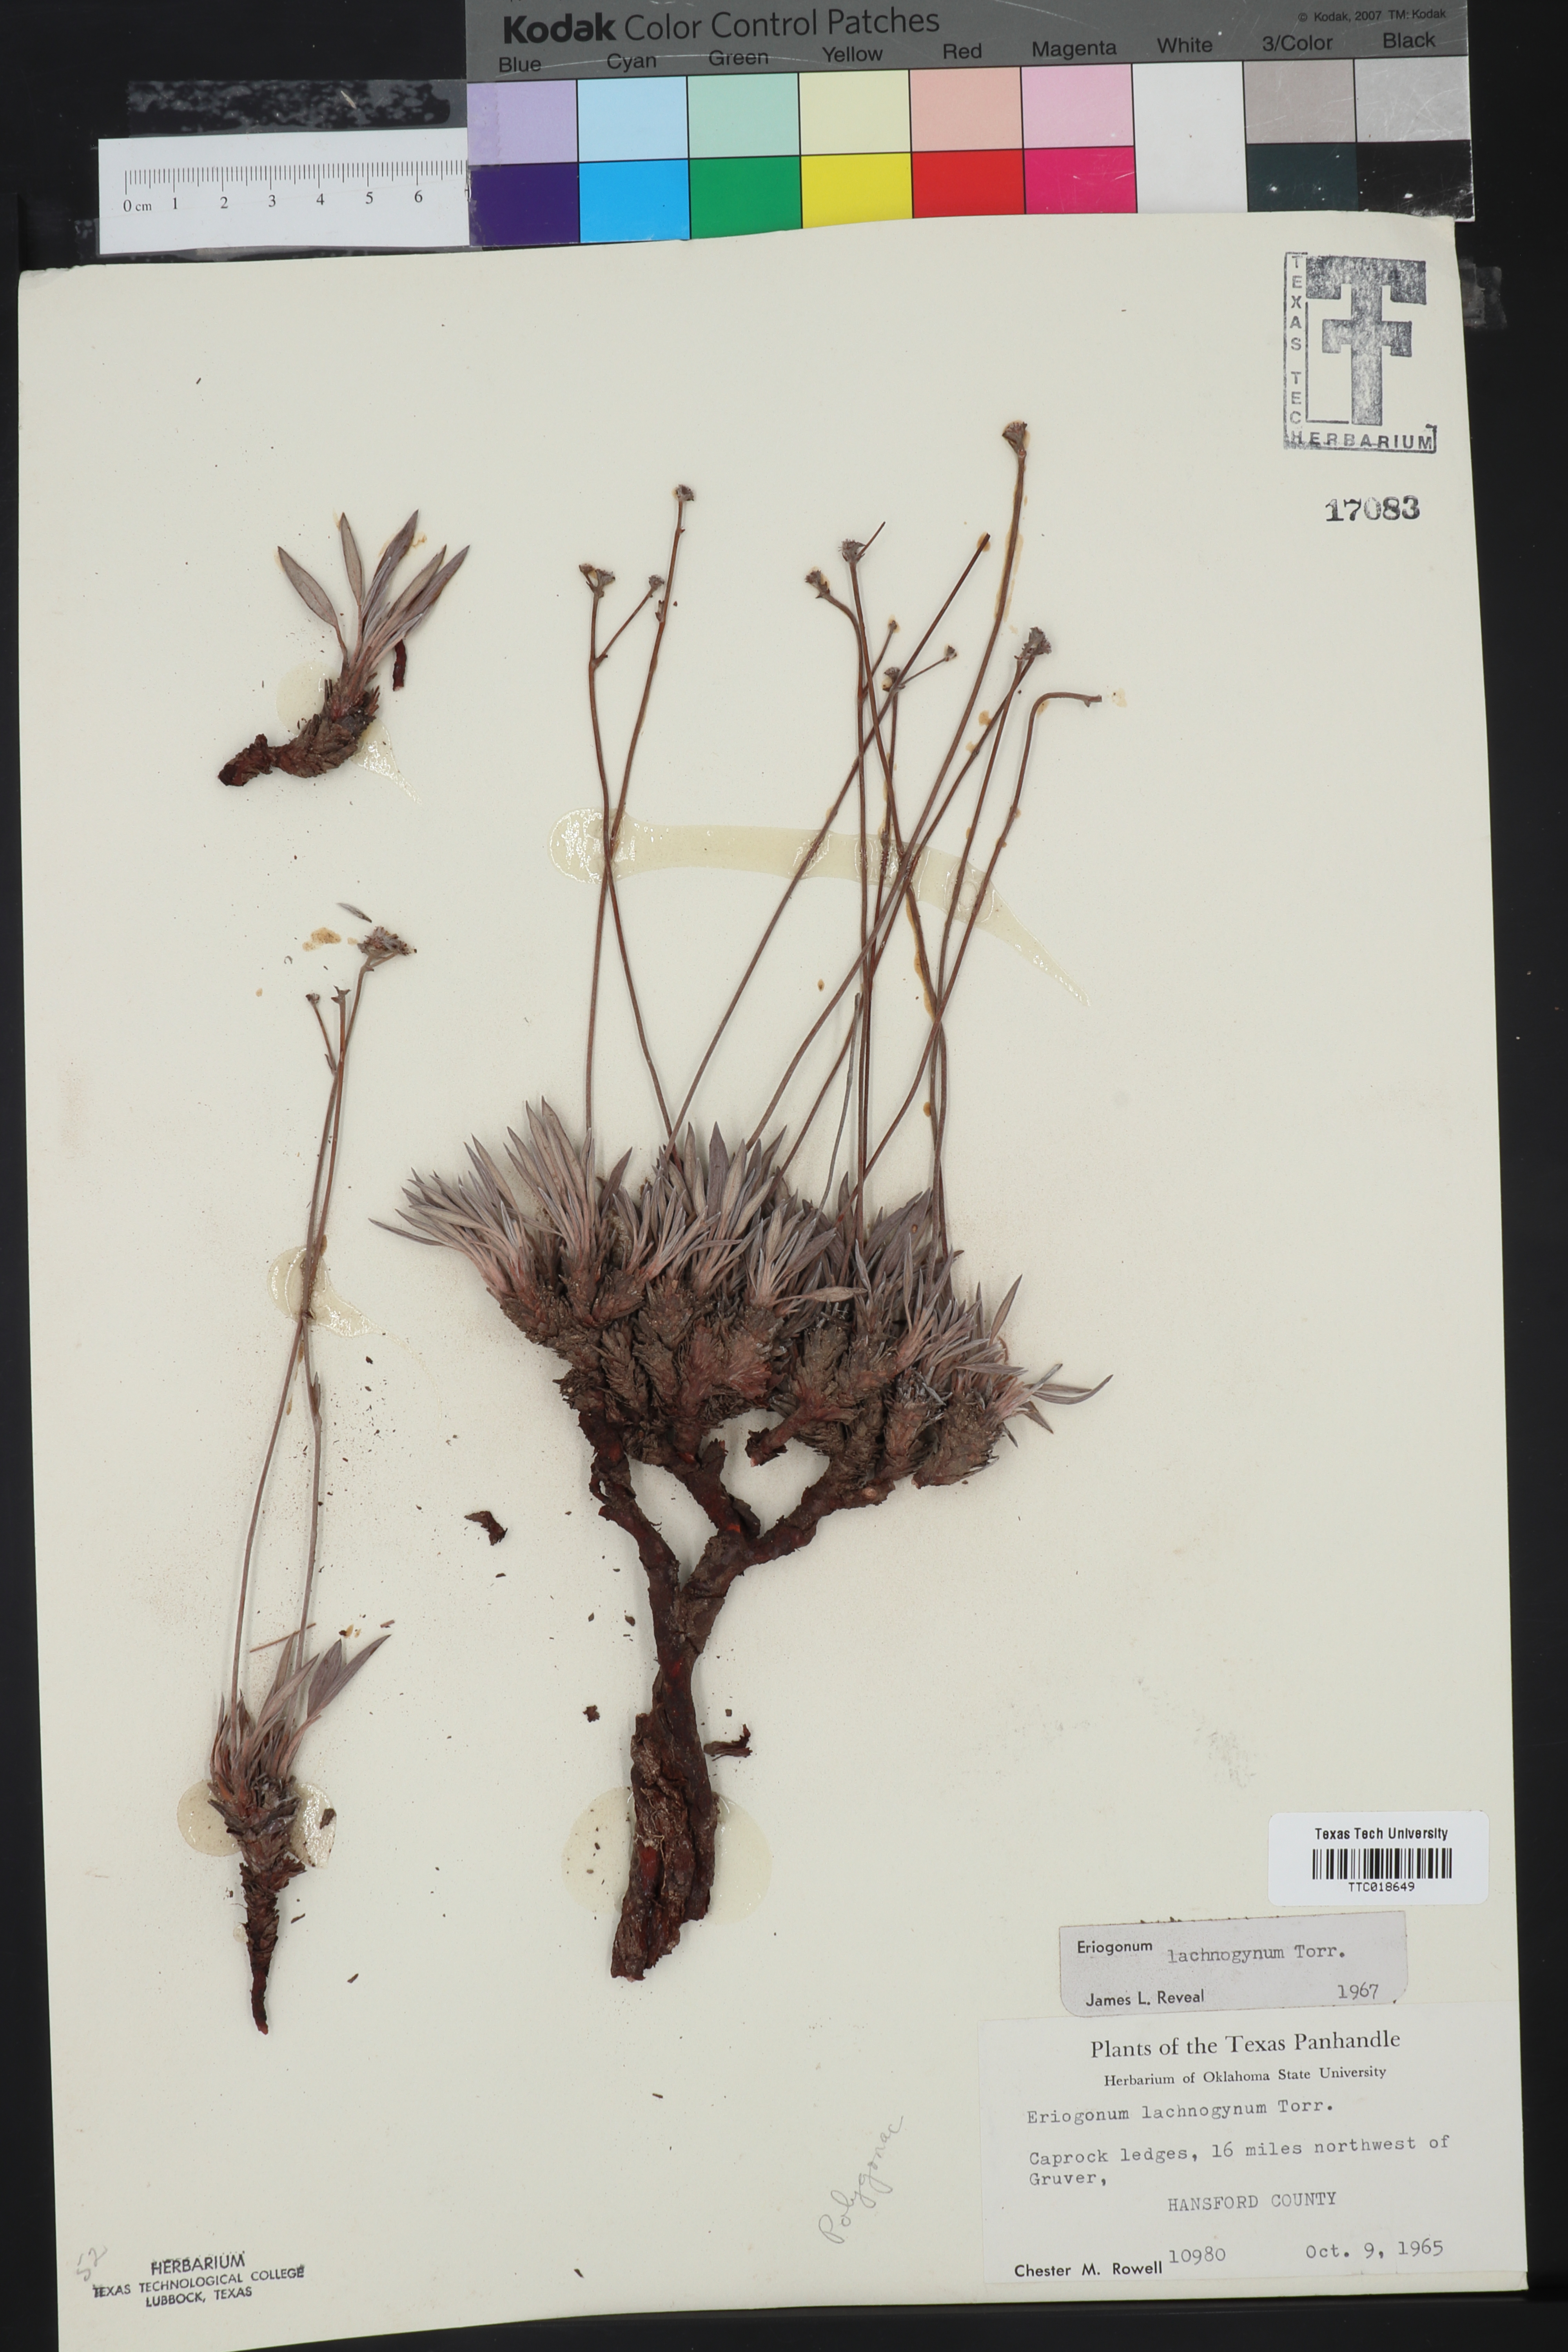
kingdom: Plantae
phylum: Tracheophyta
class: Magnoliopsida
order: Caryophyllales
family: Polygonaceae
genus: Eriogonum
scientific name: Eriogonum lachnogynum
